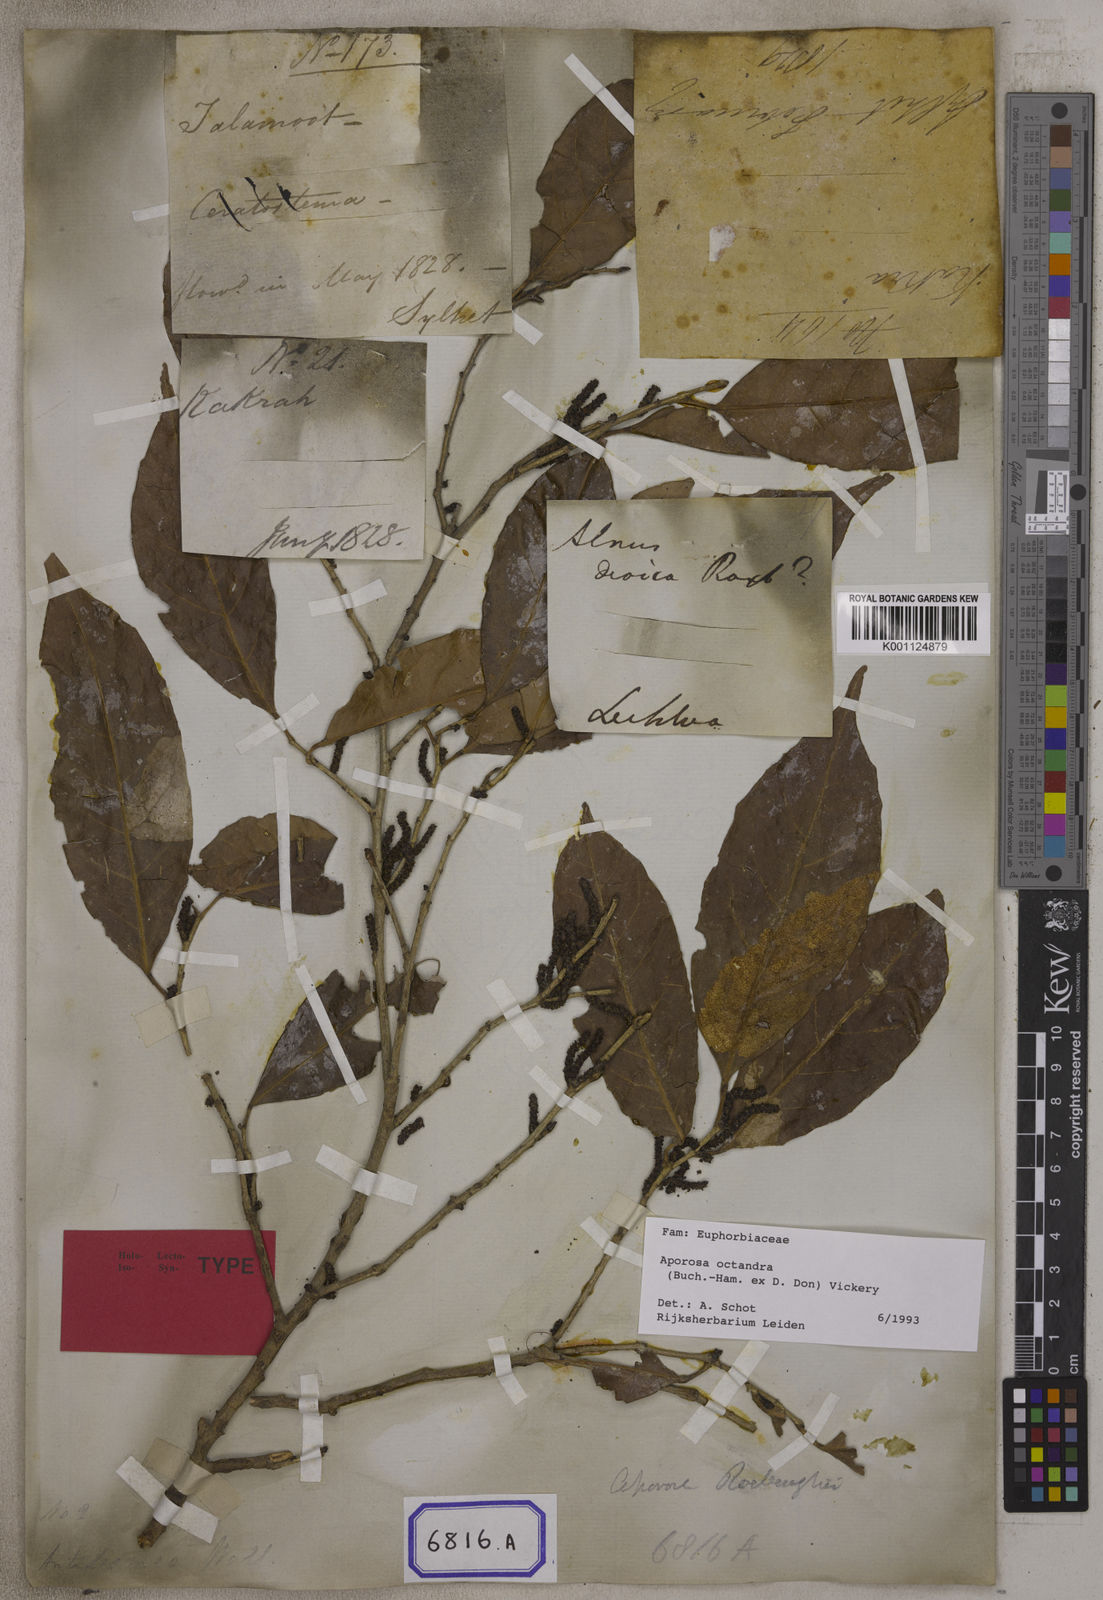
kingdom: Plantae
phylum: Tracheophyta
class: Magnoliopsida
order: Malpighiales
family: Phyllanthaceae
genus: Aporosa
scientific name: Aporosa
